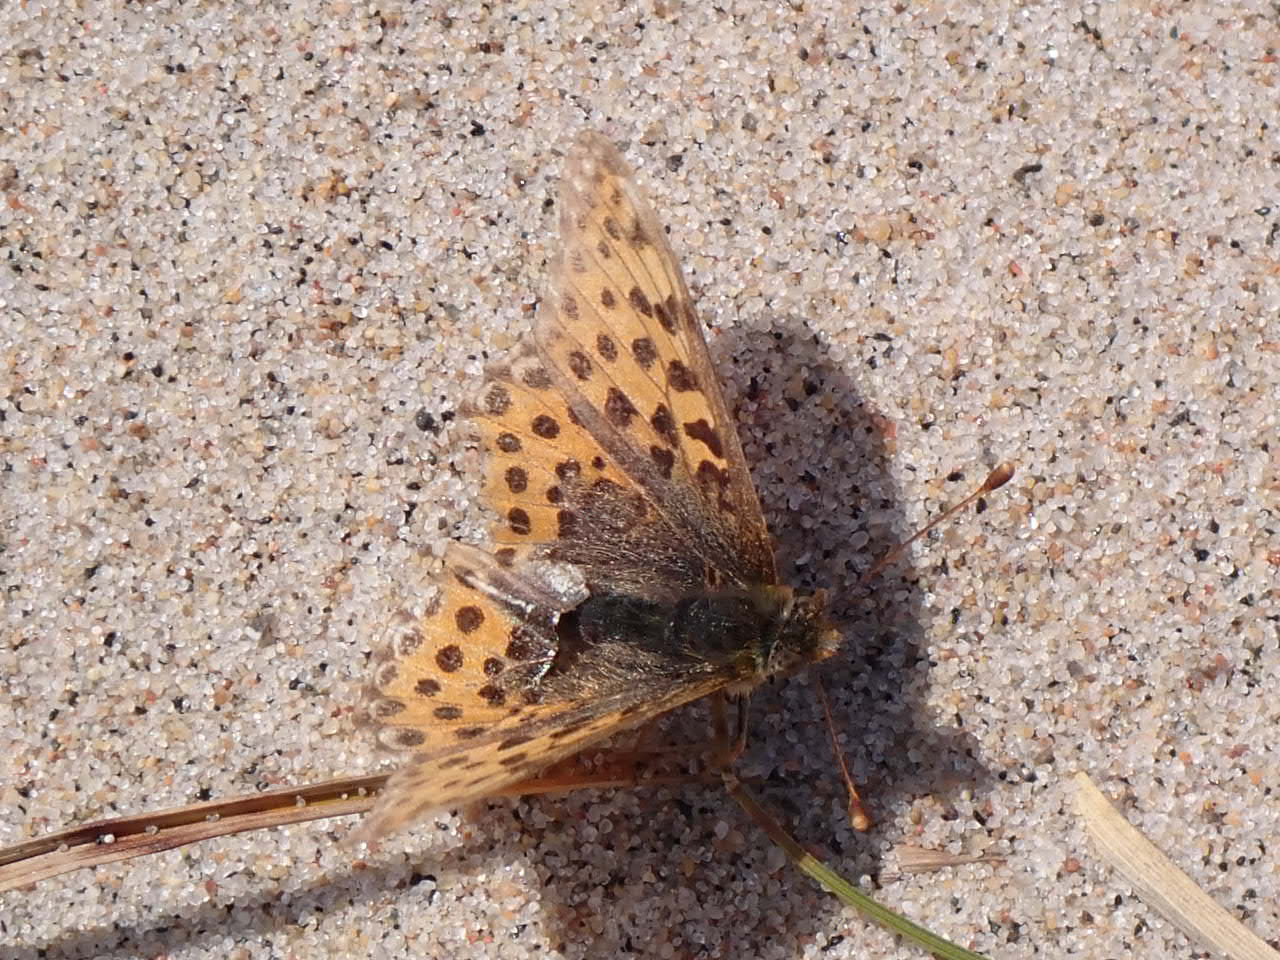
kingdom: Animalia
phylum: Arthropoda
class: Insecta
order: Lepidoptera
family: Nymphalidae
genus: Issoria
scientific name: Issoria lathonia
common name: Storplettet perlemorsommerfugl
